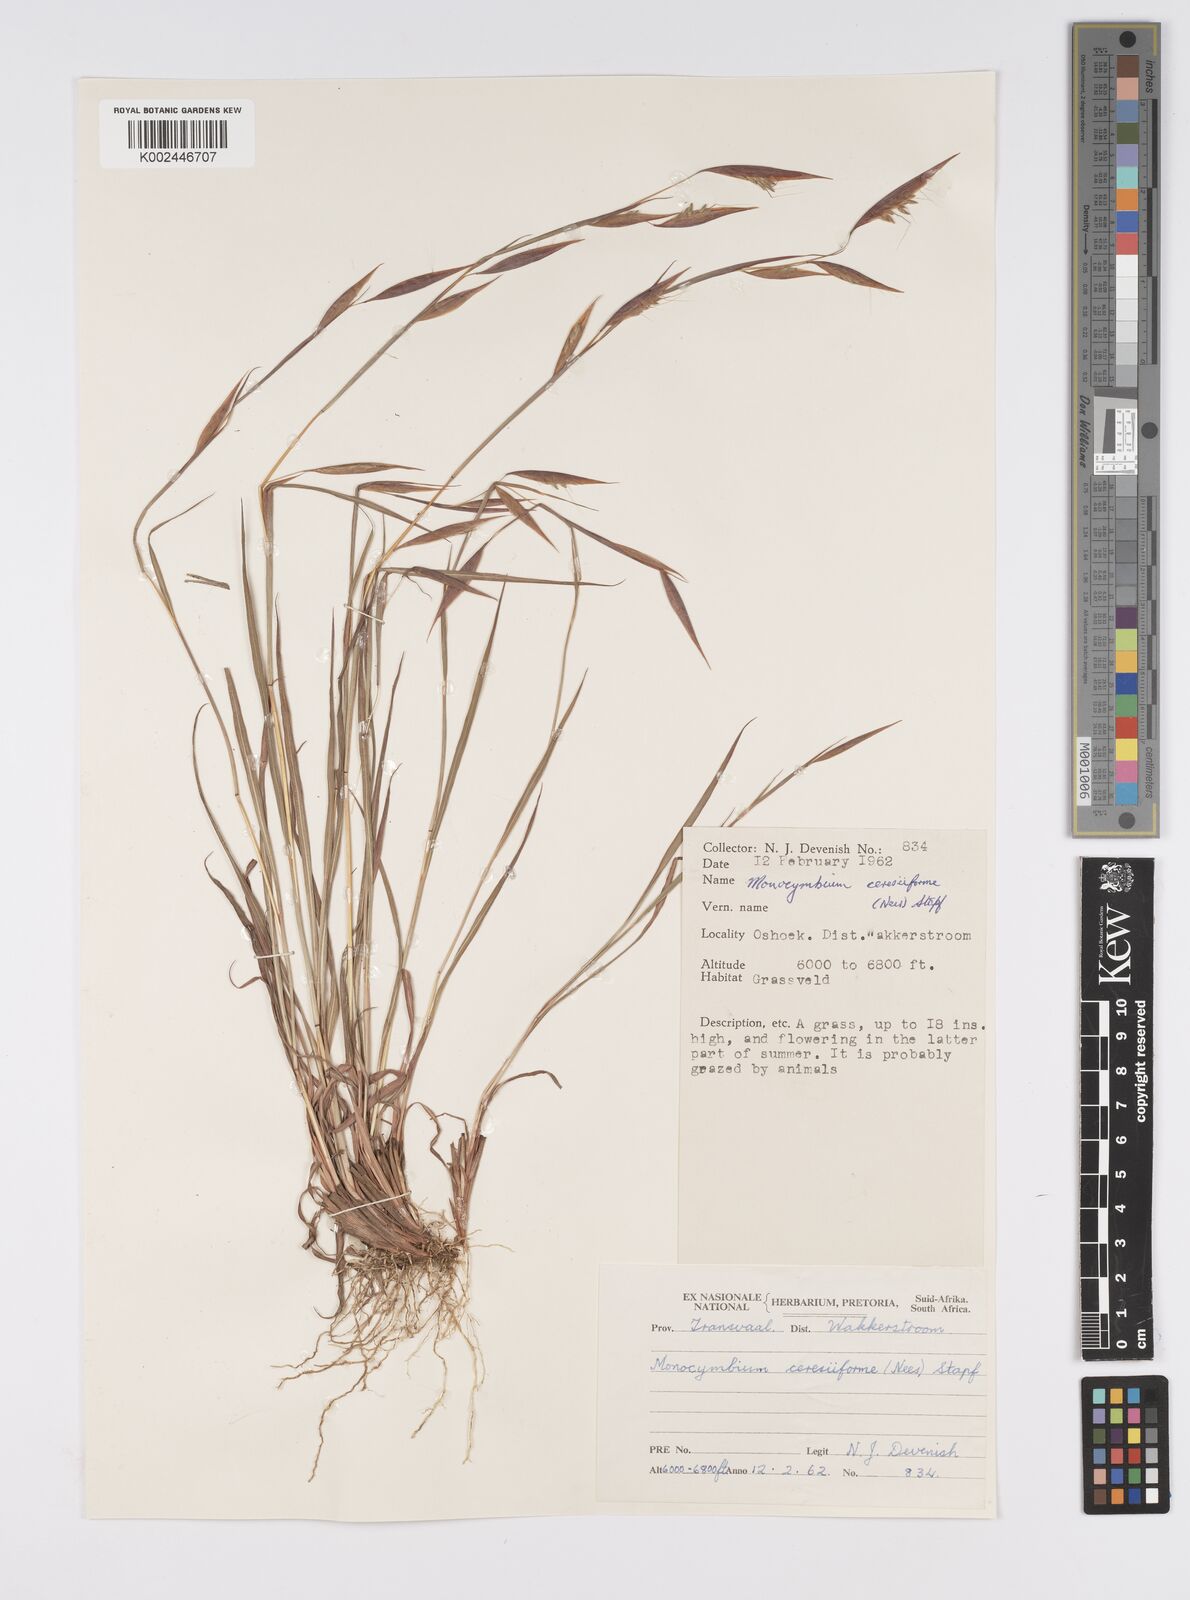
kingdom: Plantae
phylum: Tracheophyta
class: Liliopsida
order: Poales
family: Poaceae
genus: Monocymbium
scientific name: Monocymbium ceresiiforme
